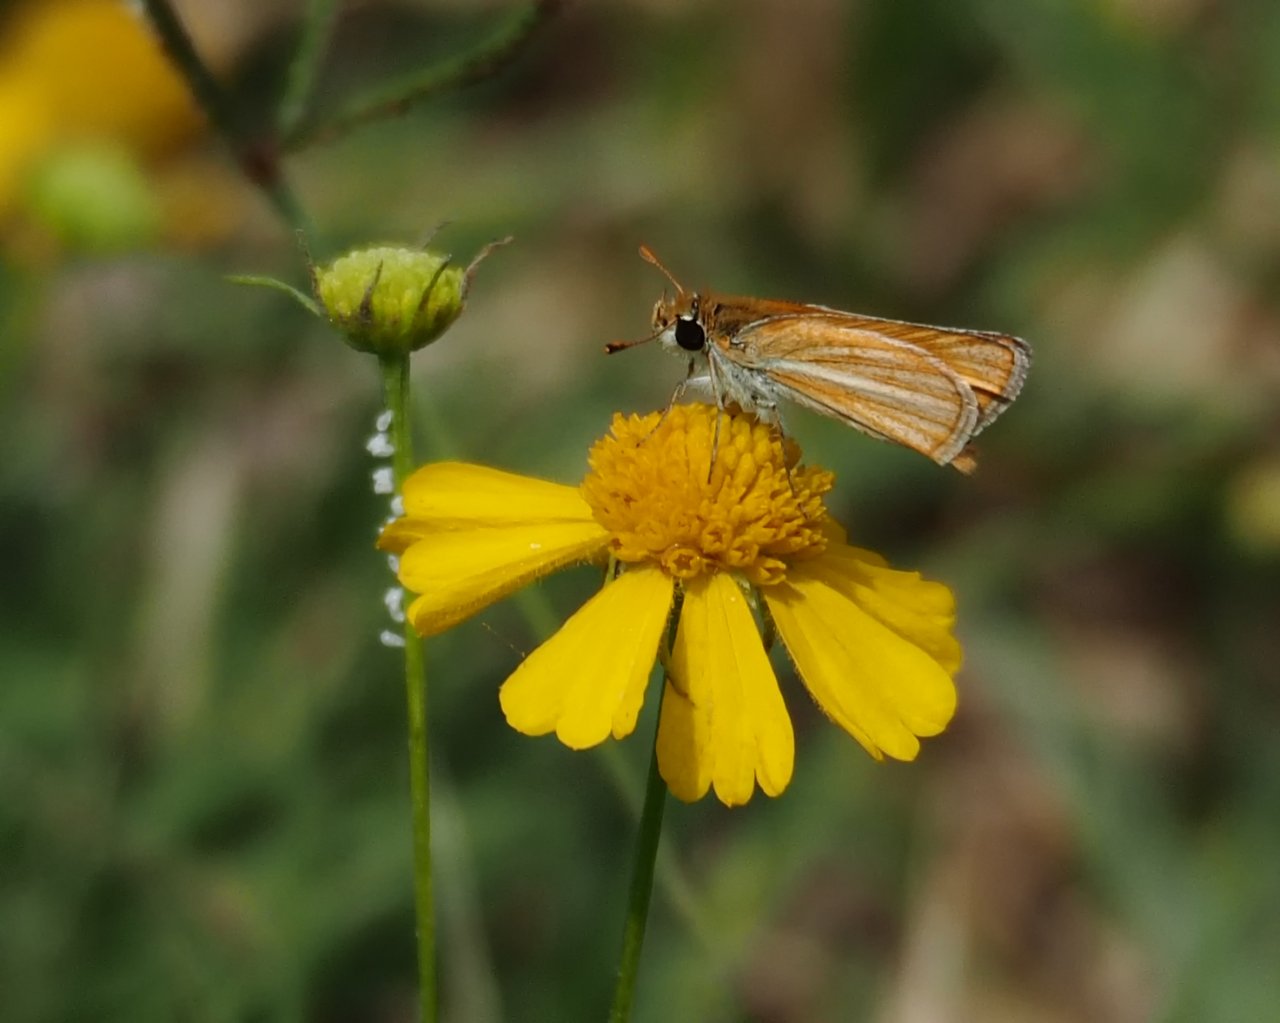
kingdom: Animalia
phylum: Arthropoda
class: Insecta
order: Lepidoptera
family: Hesperiidae
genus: Copaeodes
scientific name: Copaeodes minima
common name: Southern Skipperling
